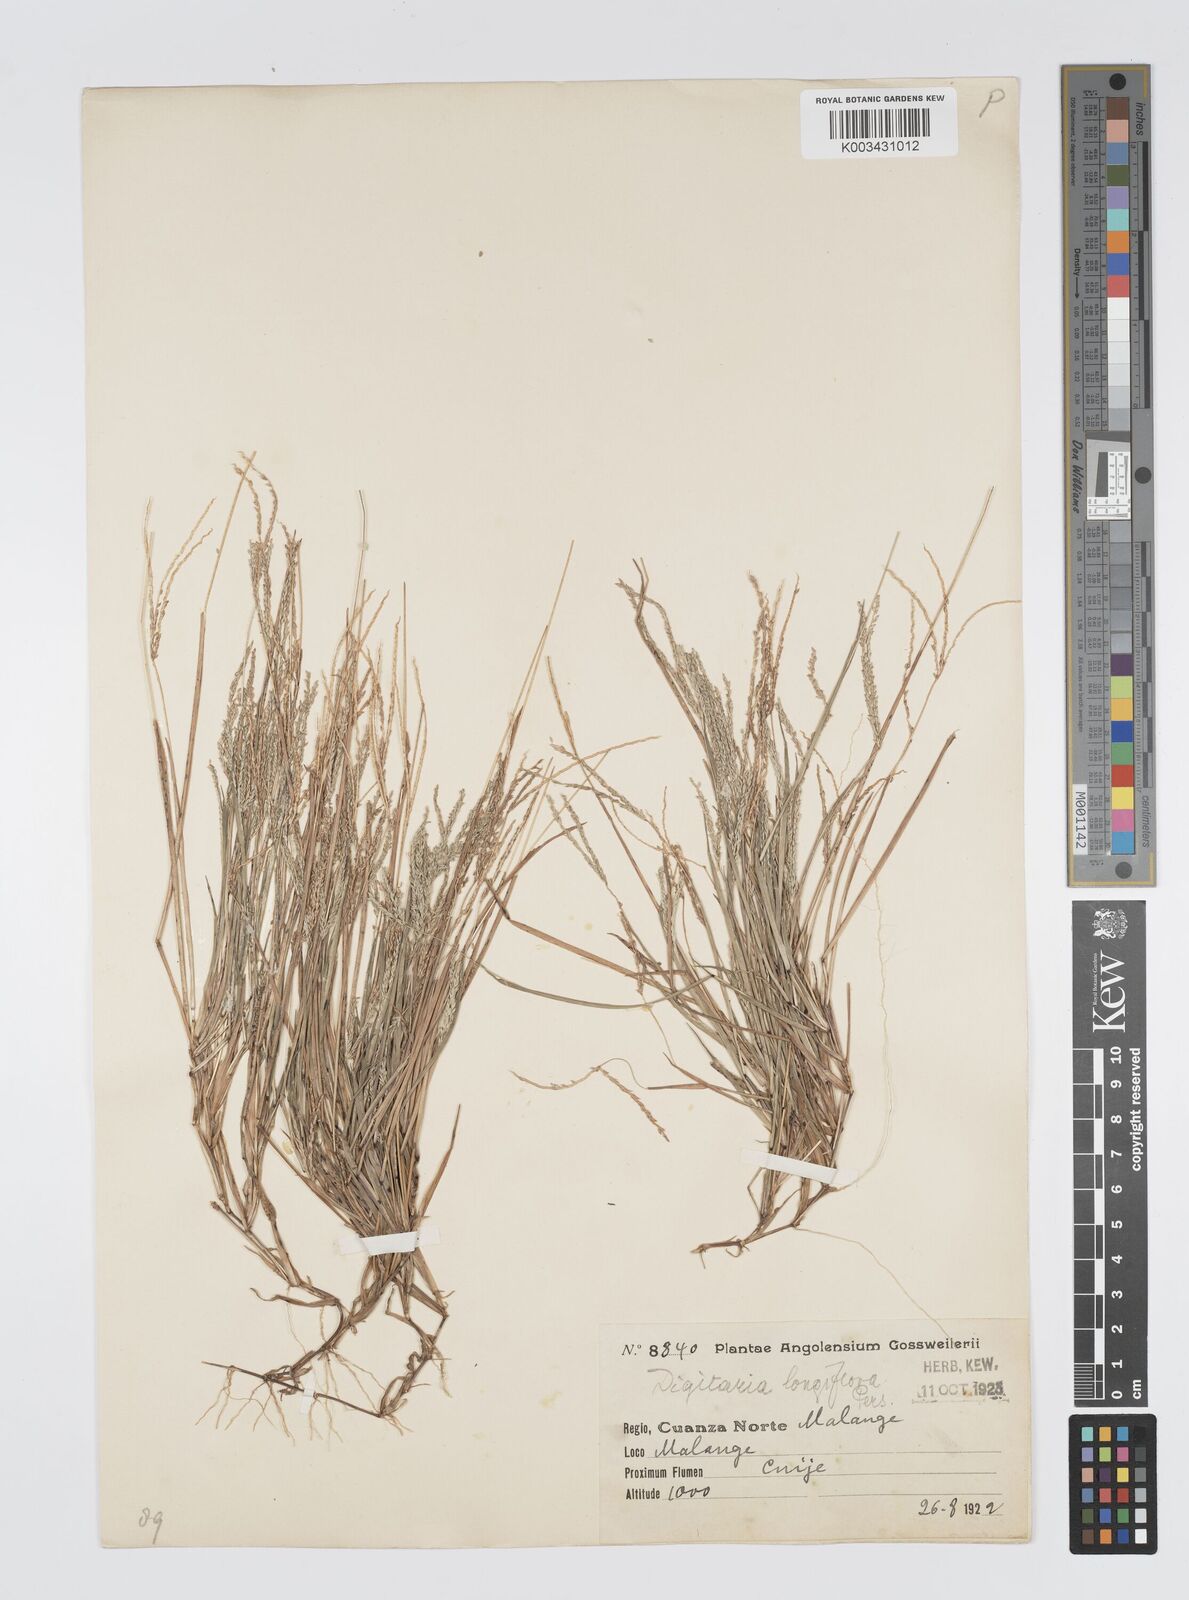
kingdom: Plantae
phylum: Tracheophyta
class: Liliopsida
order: Poales
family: Poaceae
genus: Digitaria
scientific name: Digitaria longiflora
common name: Wire crabgrass
